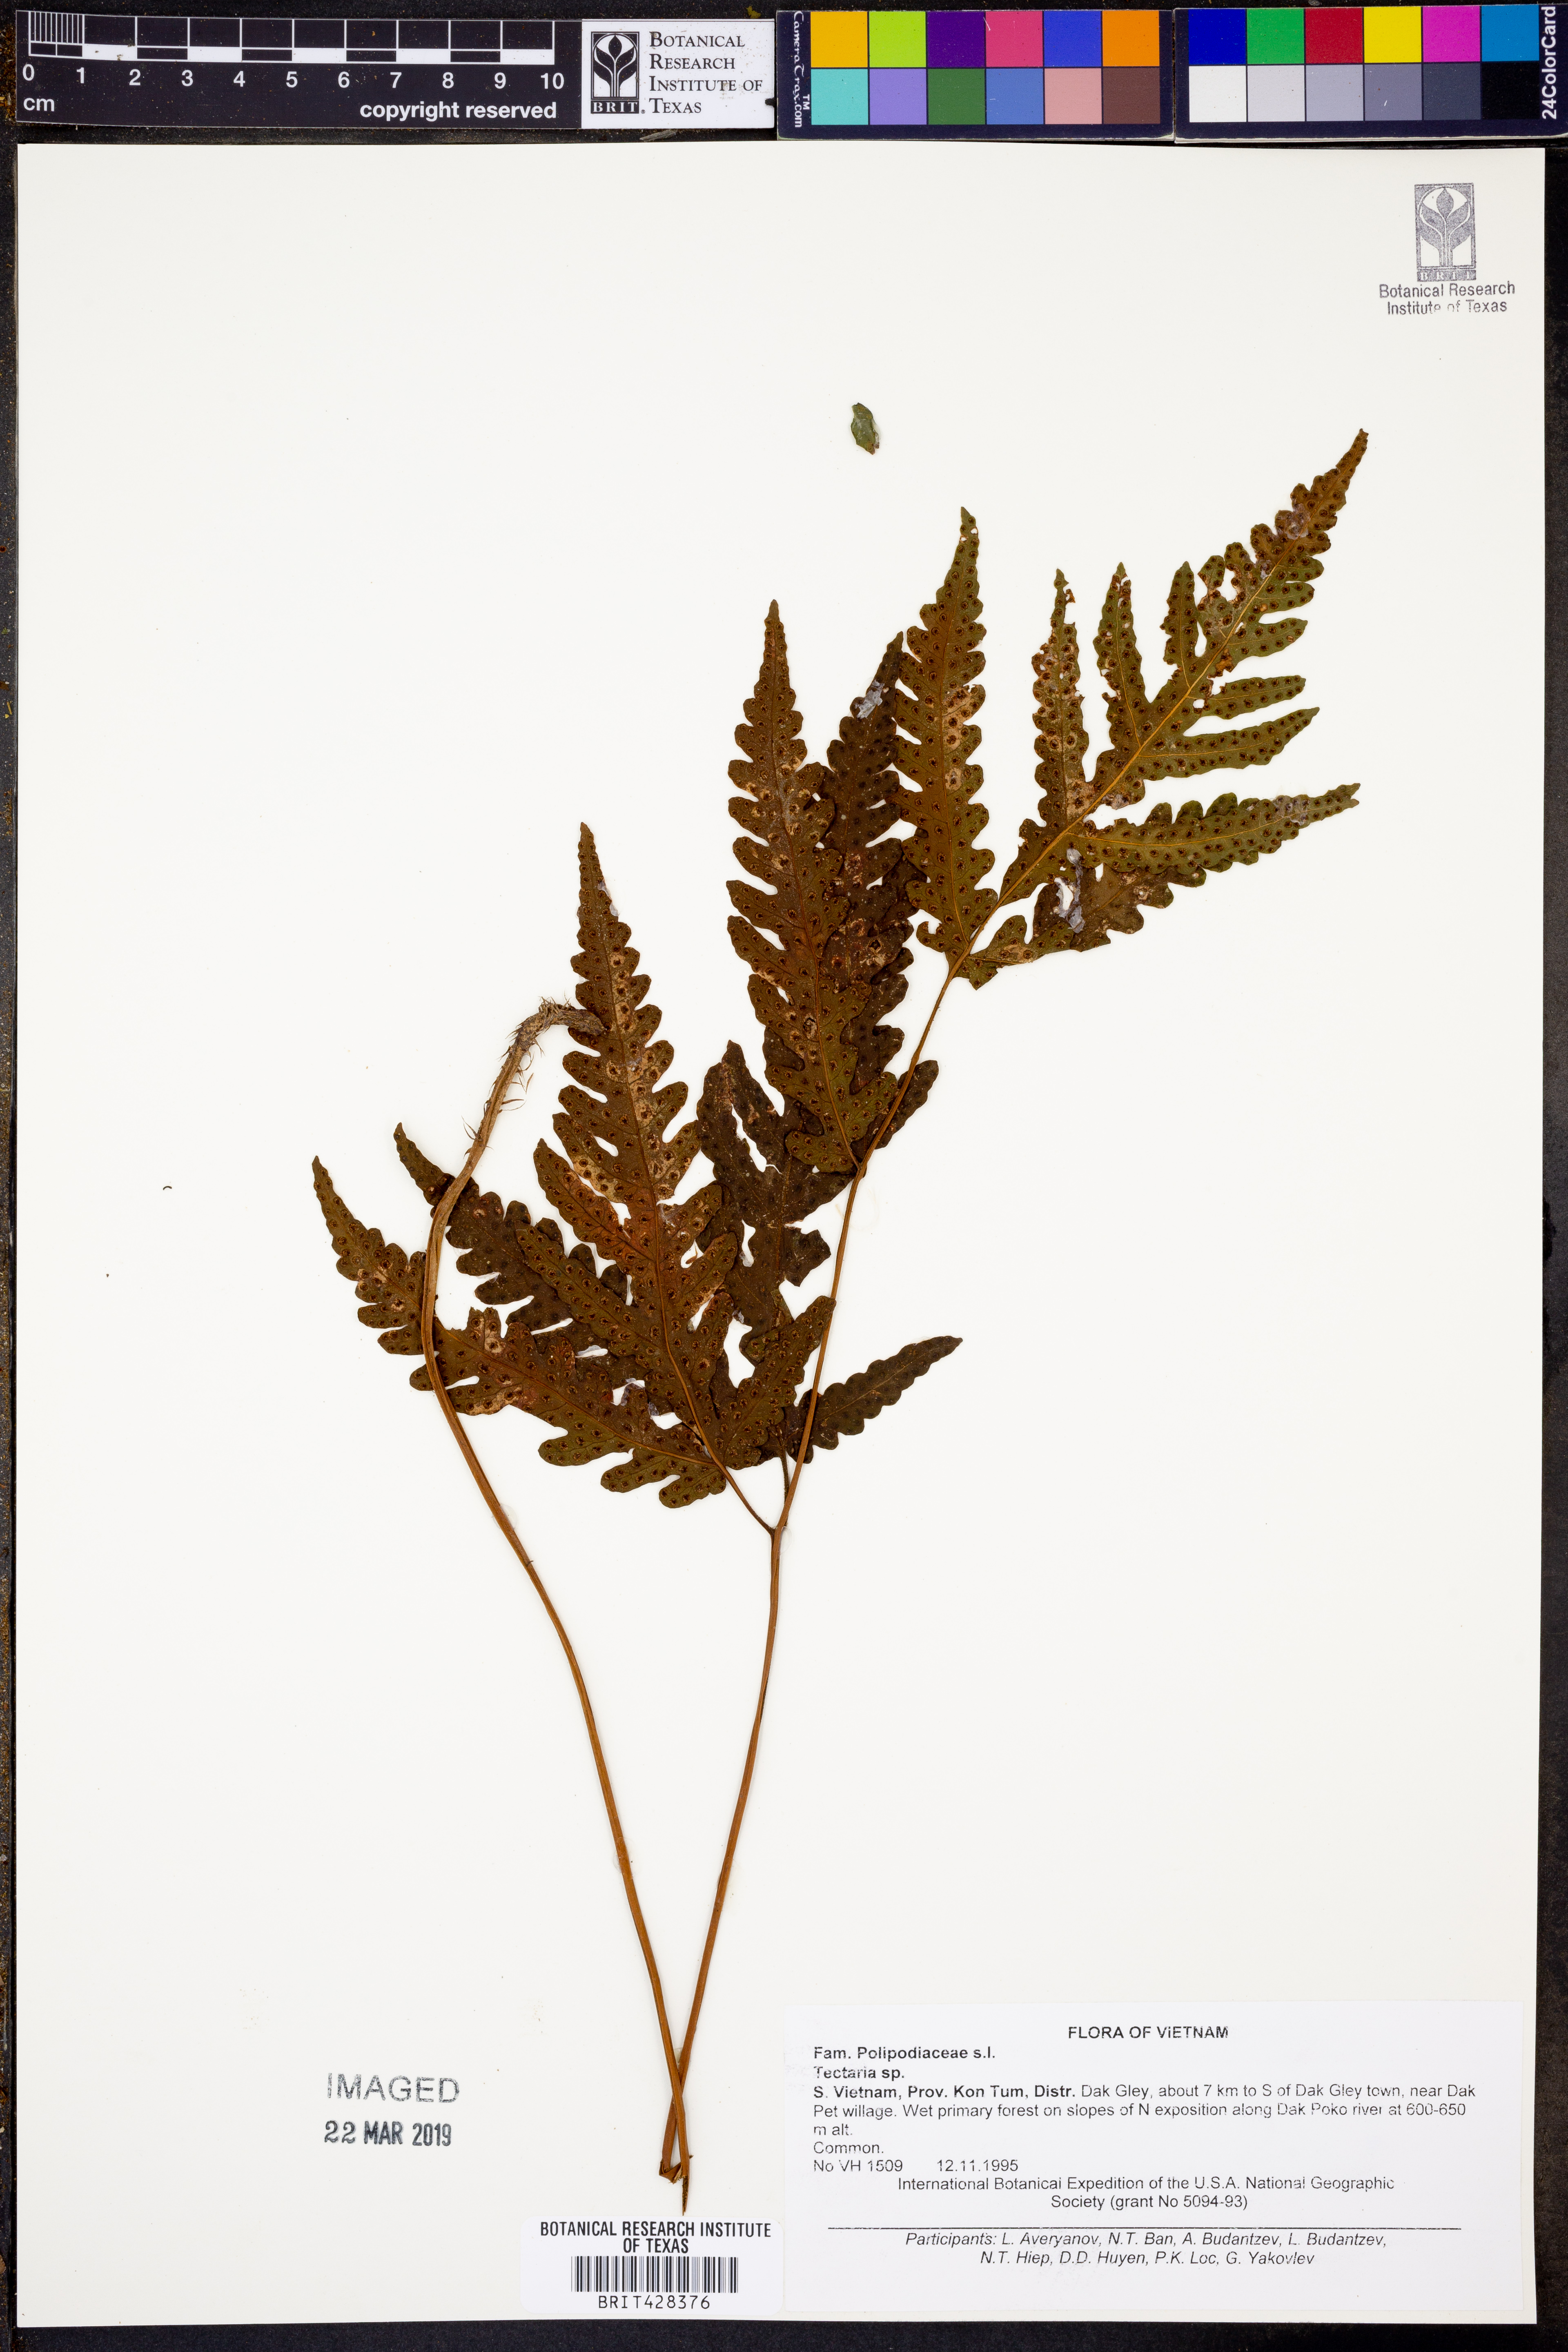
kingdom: Plantae
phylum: Tracheophyta
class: Polypodiopsida
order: Polypodiales
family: Tectariaceae
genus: Tectaria
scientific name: Tectaria
